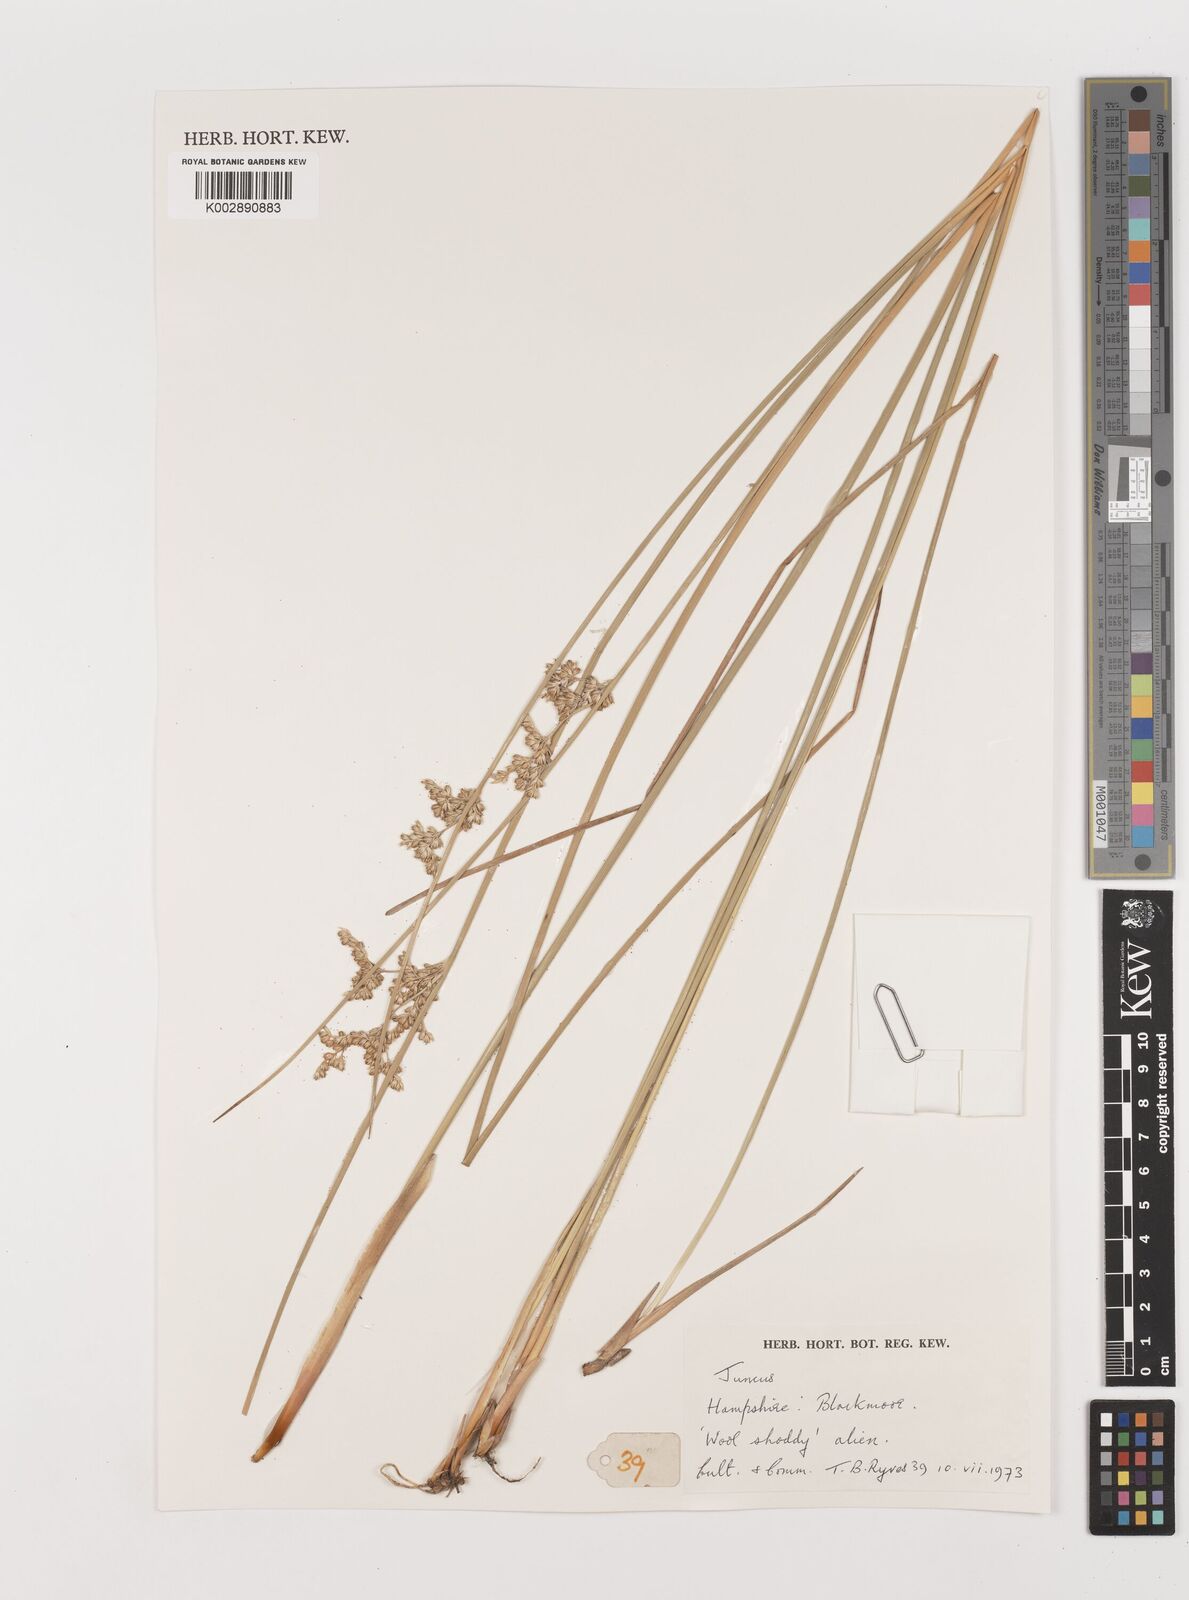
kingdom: Plantae
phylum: Tracheophyta
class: Liliopsida
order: Poales
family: Juncaceae
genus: Juncus
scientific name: Juncus
